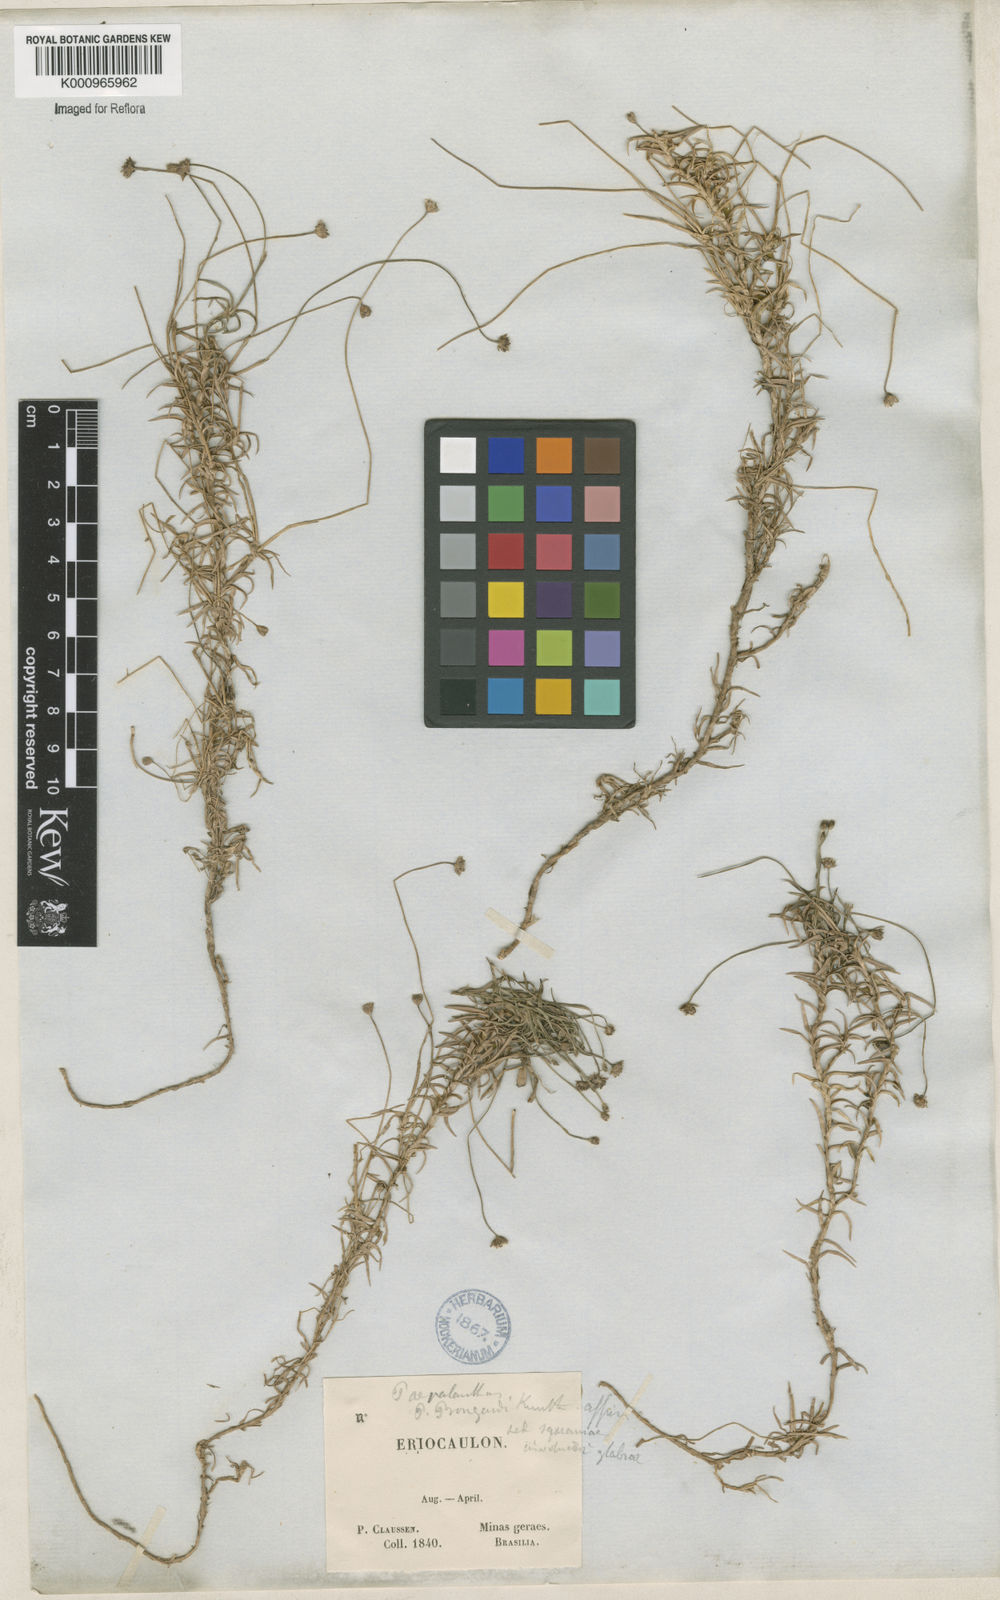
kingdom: Plantae
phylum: Tracheophyta
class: Liliopsida
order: Poales
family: Eriocaulaceae
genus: Paepalanthus
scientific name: Paepalanthus bongardii
